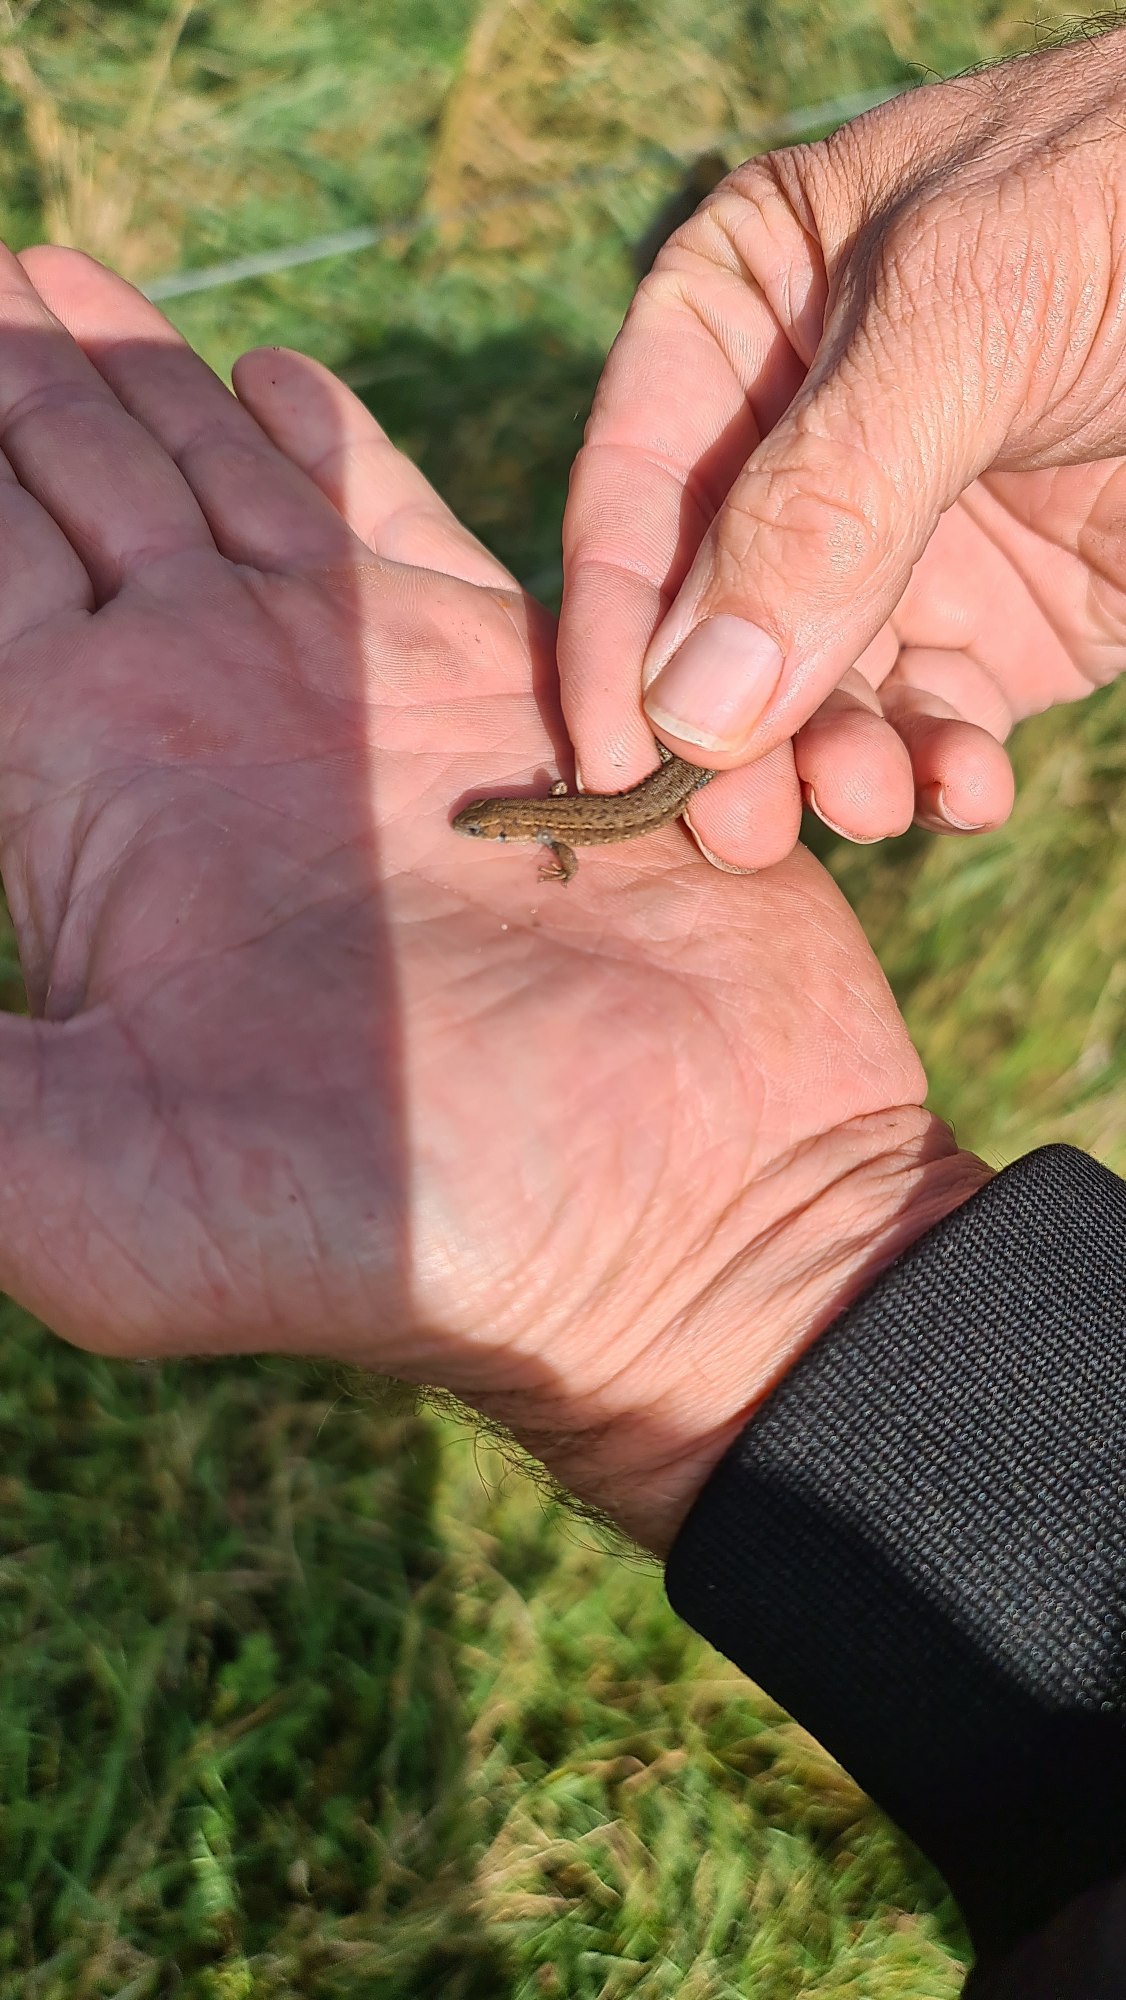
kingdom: Animalia
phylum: Chordata
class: Squamata
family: Lacertidae
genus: Zootoca
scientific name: Zootoca vivipara
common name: Skovfirben
